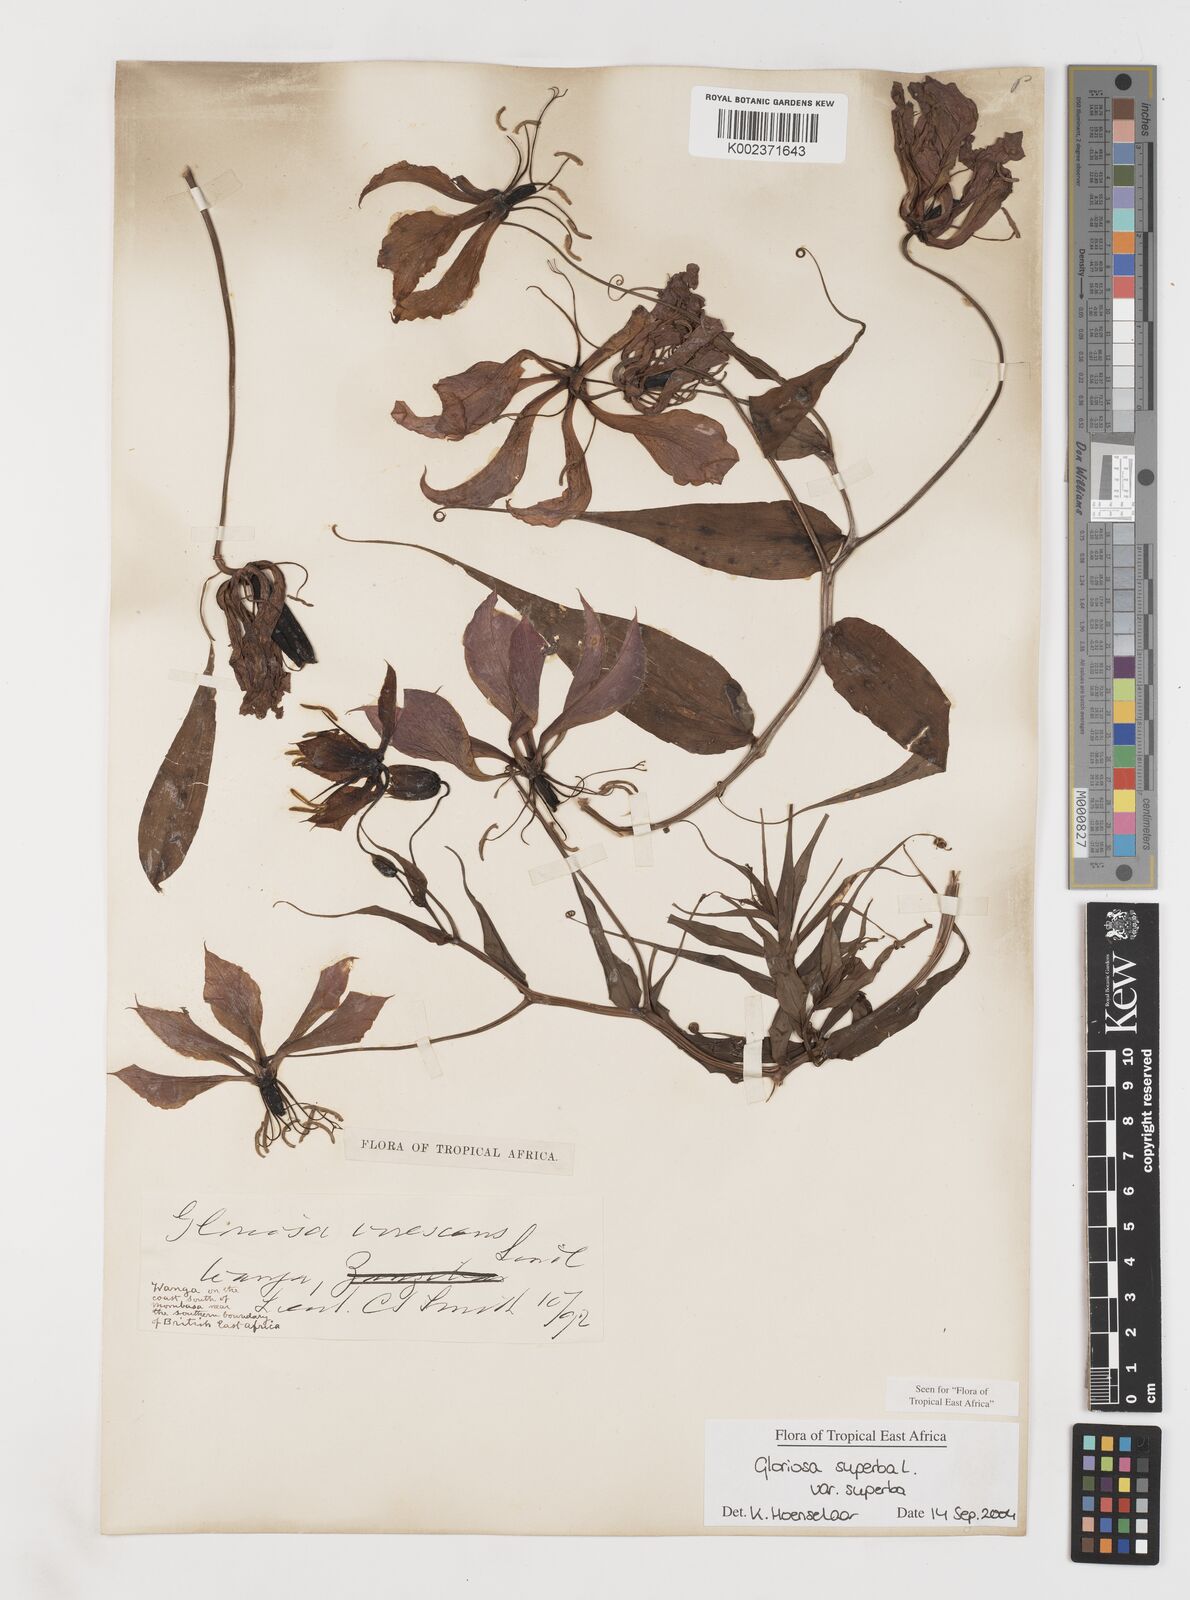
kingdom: Plantae
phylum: Tracheophyta
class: Liliopsida
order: Liliales
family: Colchicaceae
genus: Gloriosa
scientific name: Gloriosa simplex
